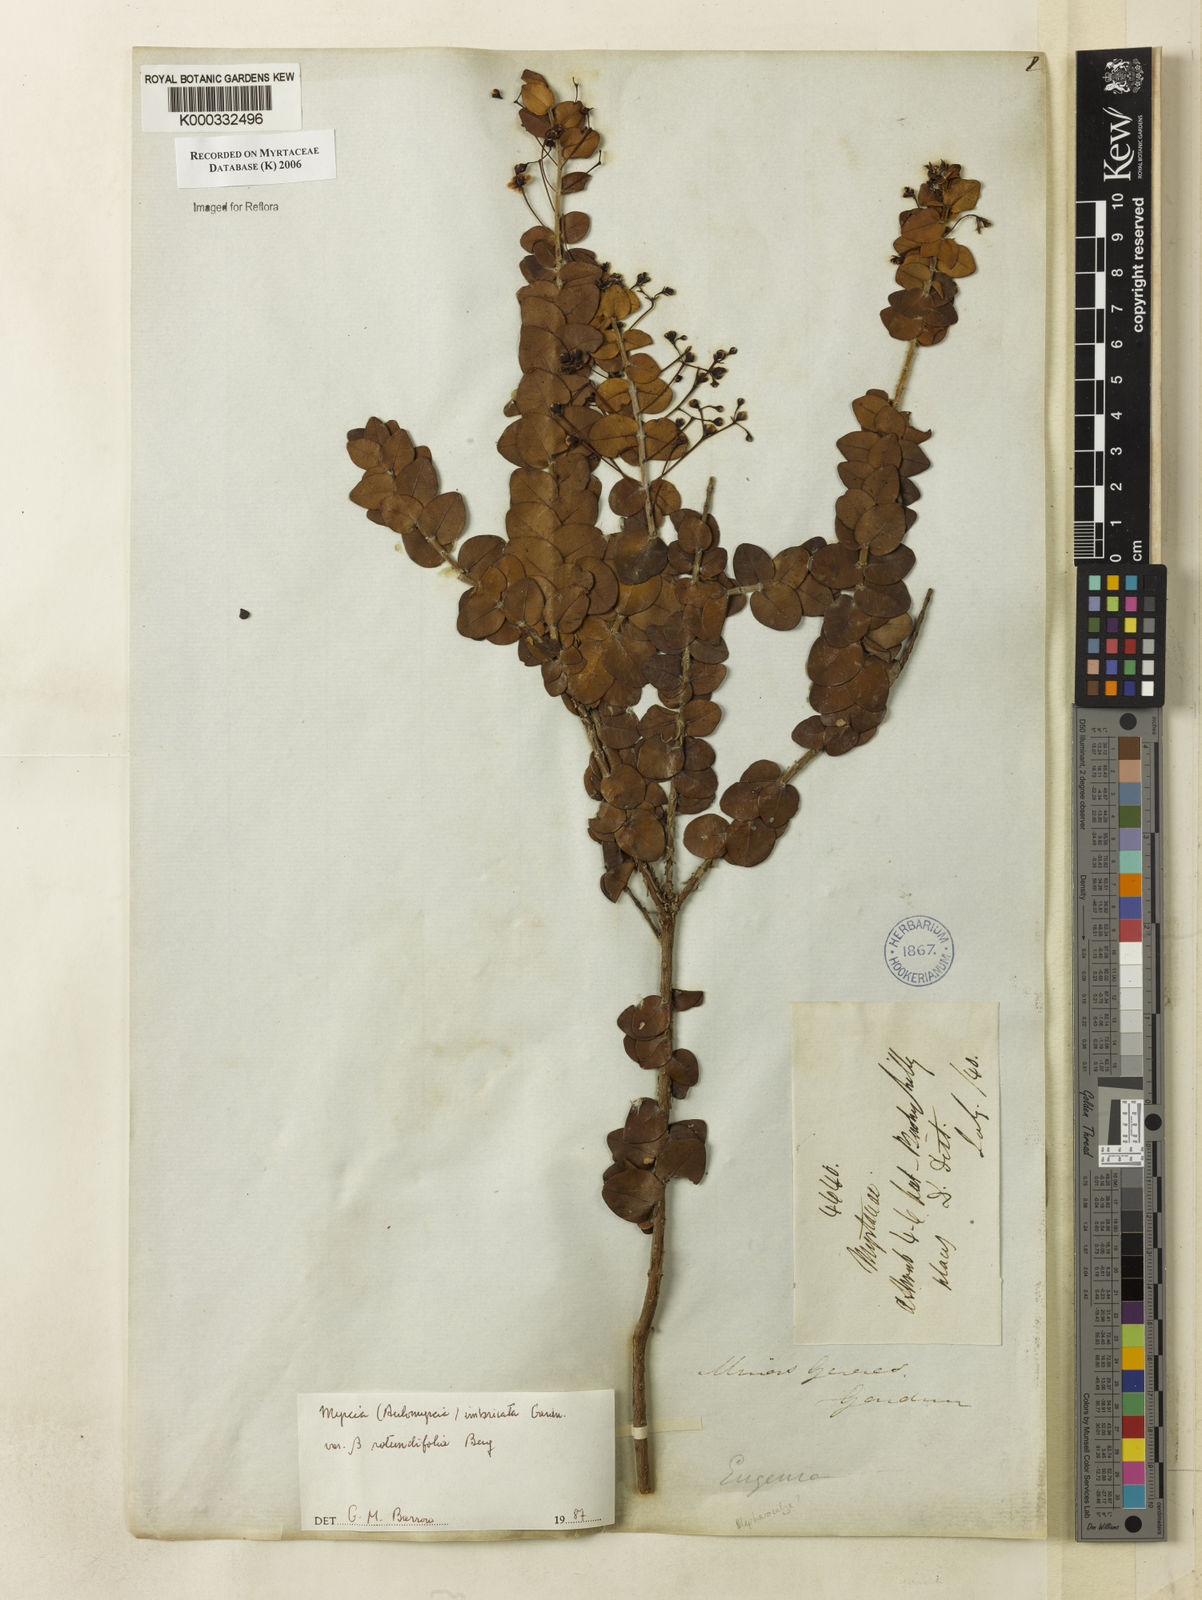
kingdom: Plantae
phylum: Tracheophyta
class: Magnoliopsida
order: Myrtales
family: Myrtaceae
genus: Myrcia
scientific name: Myrcia racemulosa
